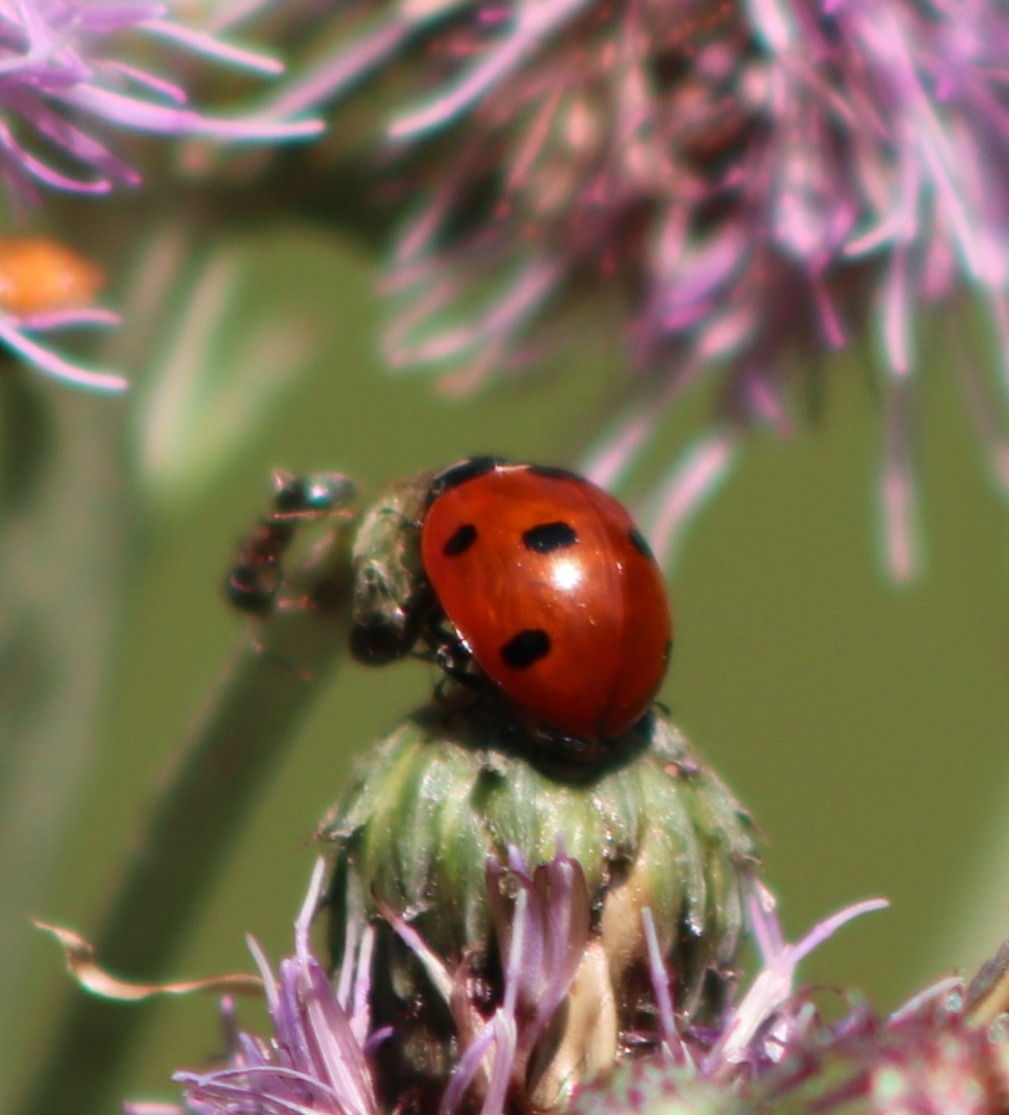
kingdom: Animalia
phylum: Arthropoda
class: Insecta
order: Coleoptera
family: Coccinellidae
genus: Coccinella
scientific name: Coccinella septempunctata
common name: Syvplettet mariehøne
